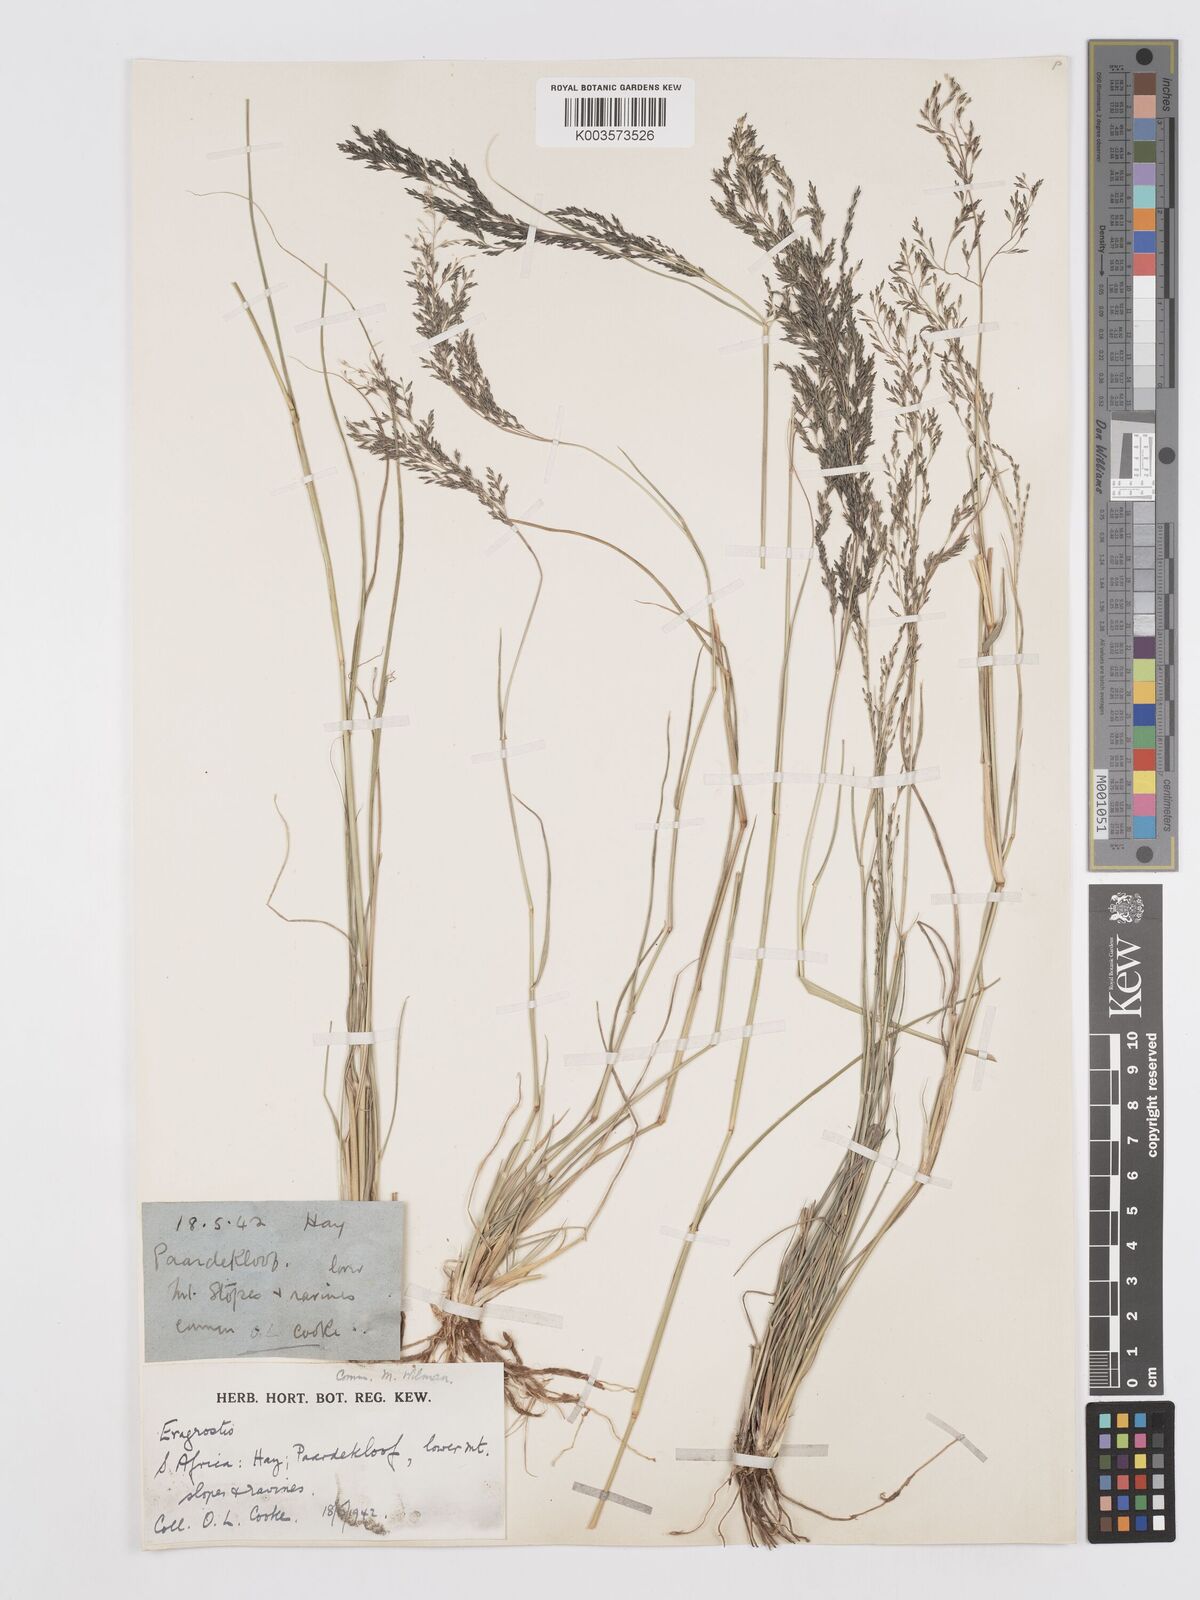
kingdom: Plantae
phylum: Tracheophyta
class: Liliopsida
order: Poales
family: Poaceae
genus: Eragrostis
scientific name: Eragrostis lehmanniana
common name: Lehmann lovegrass
